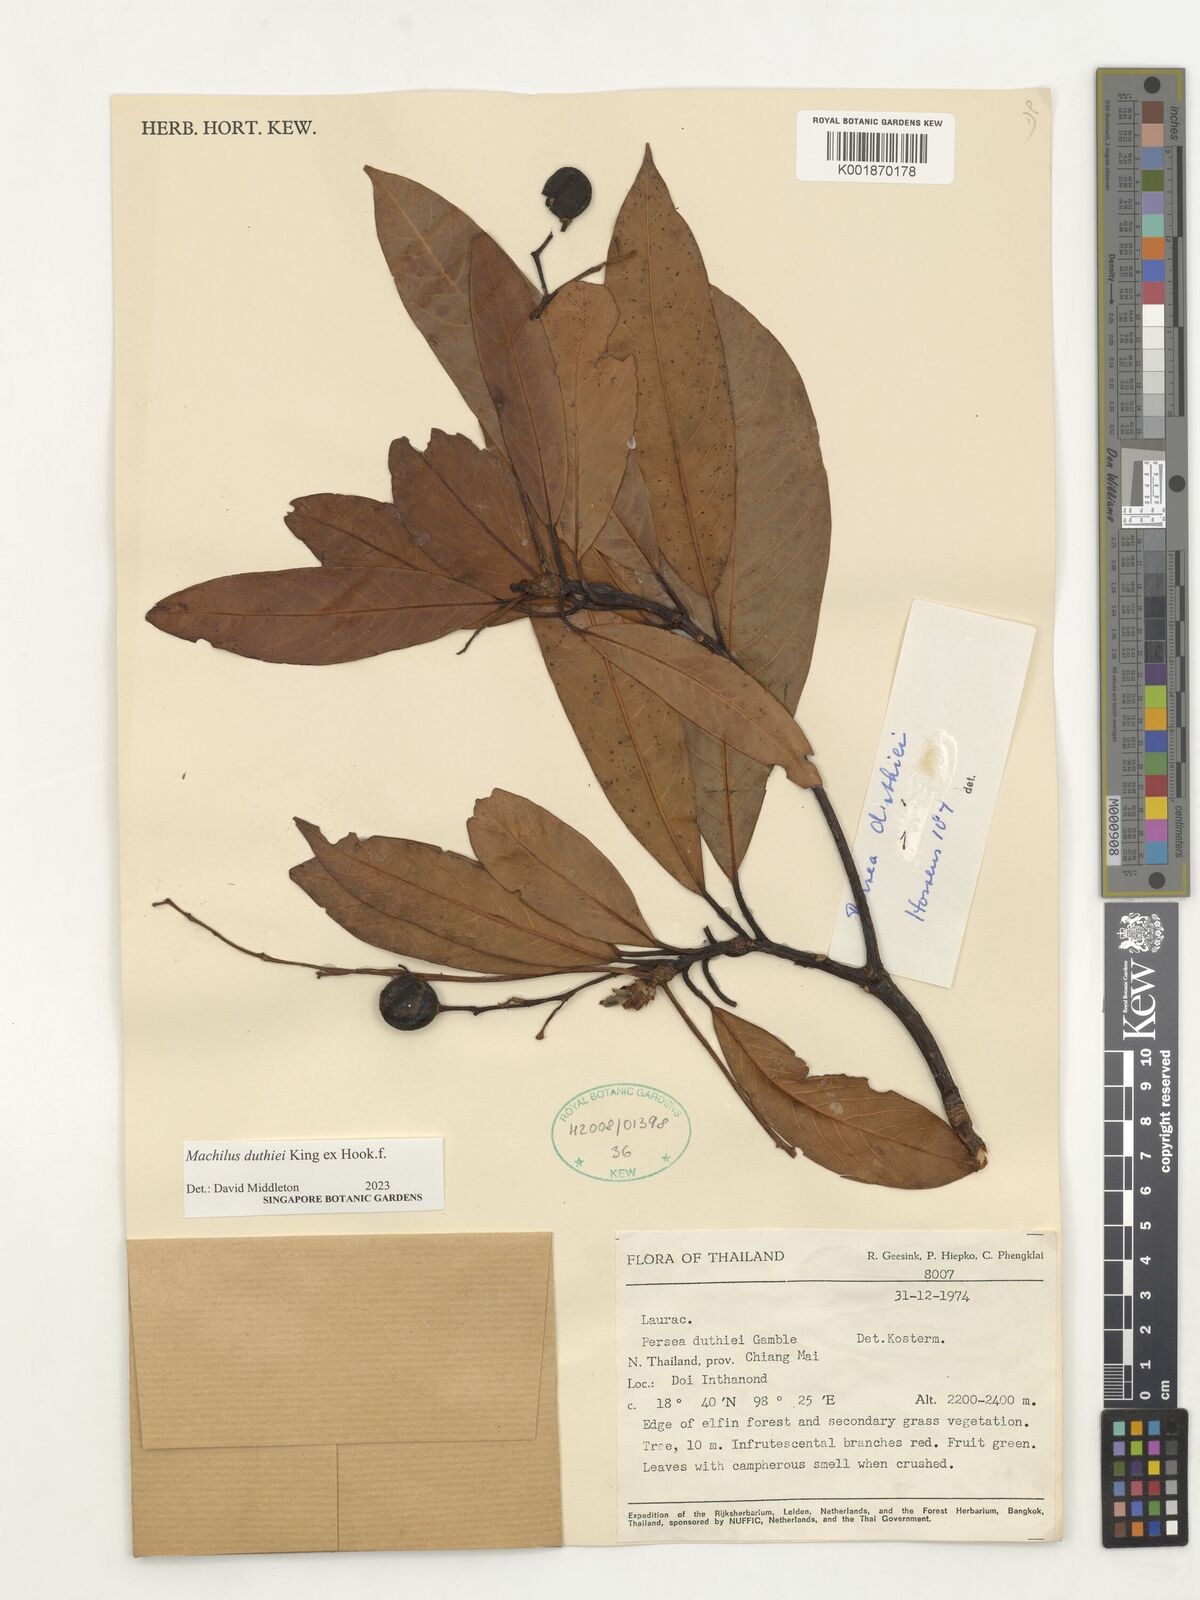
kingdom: Plantae
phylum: Tracheophyta
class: Magnoliopsida
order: Laurales
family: Lauraceae
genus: Machilus
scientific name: Machilus duthiei
